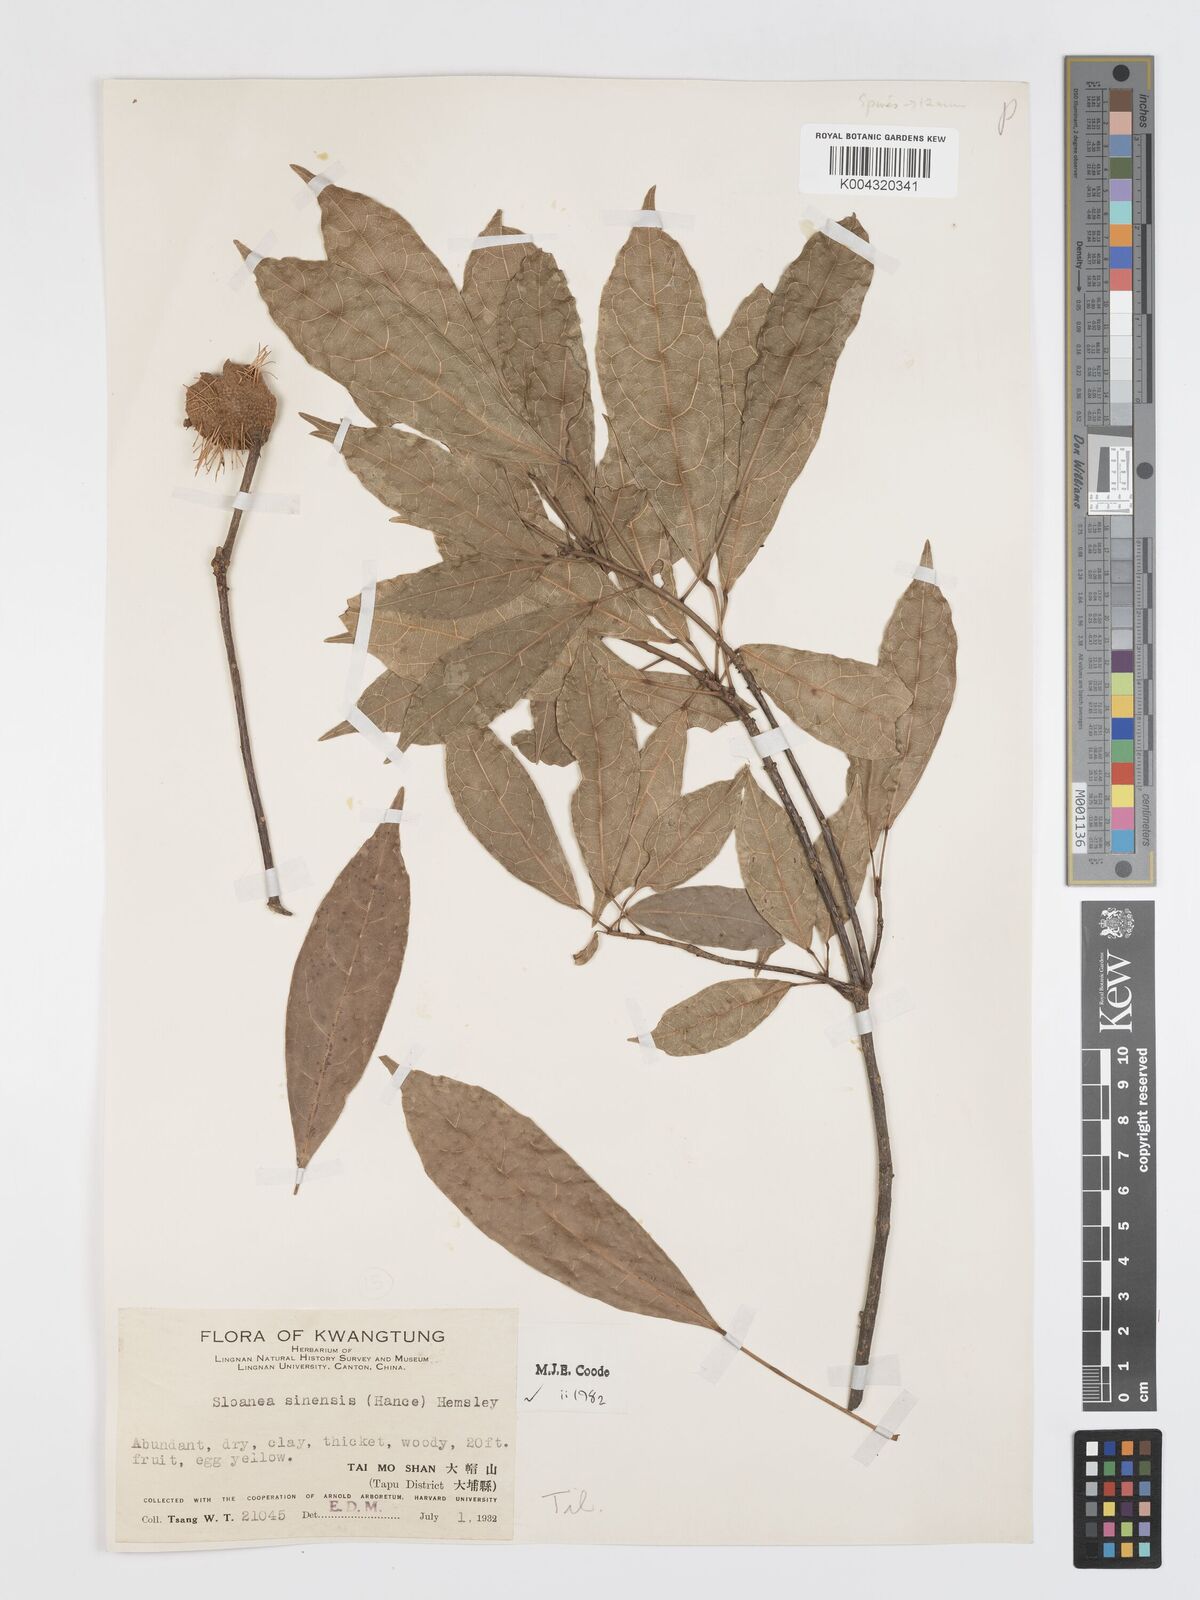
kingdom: Plantae
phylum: Tracheophyta
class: Magnoliopsida
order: Oxalidales
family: Elaeocarpaceae
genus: Sloanea
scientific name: Sloanea sinensis
